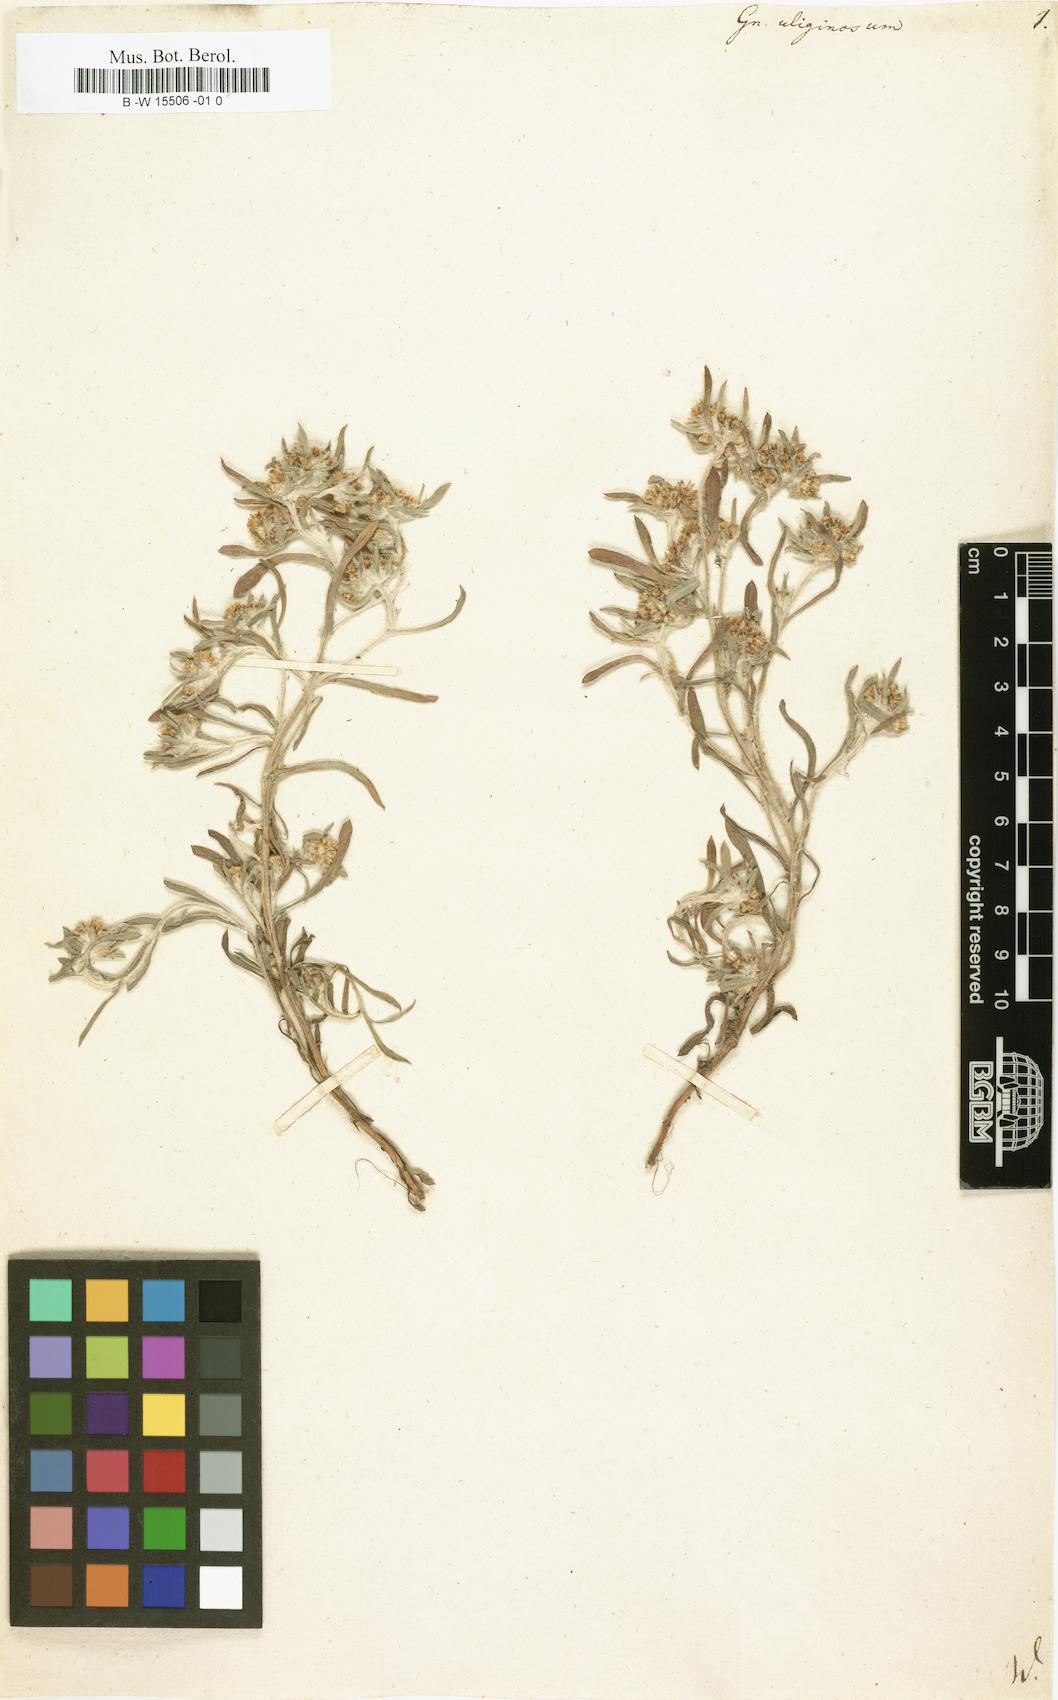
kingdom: Plantae
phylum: Tracheophyta
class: Magnoliopsida
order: Asterales
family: Asteraceae
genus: Gnaphalium
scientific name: Gnaphalium uliginosum
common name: Marsh cudweed
